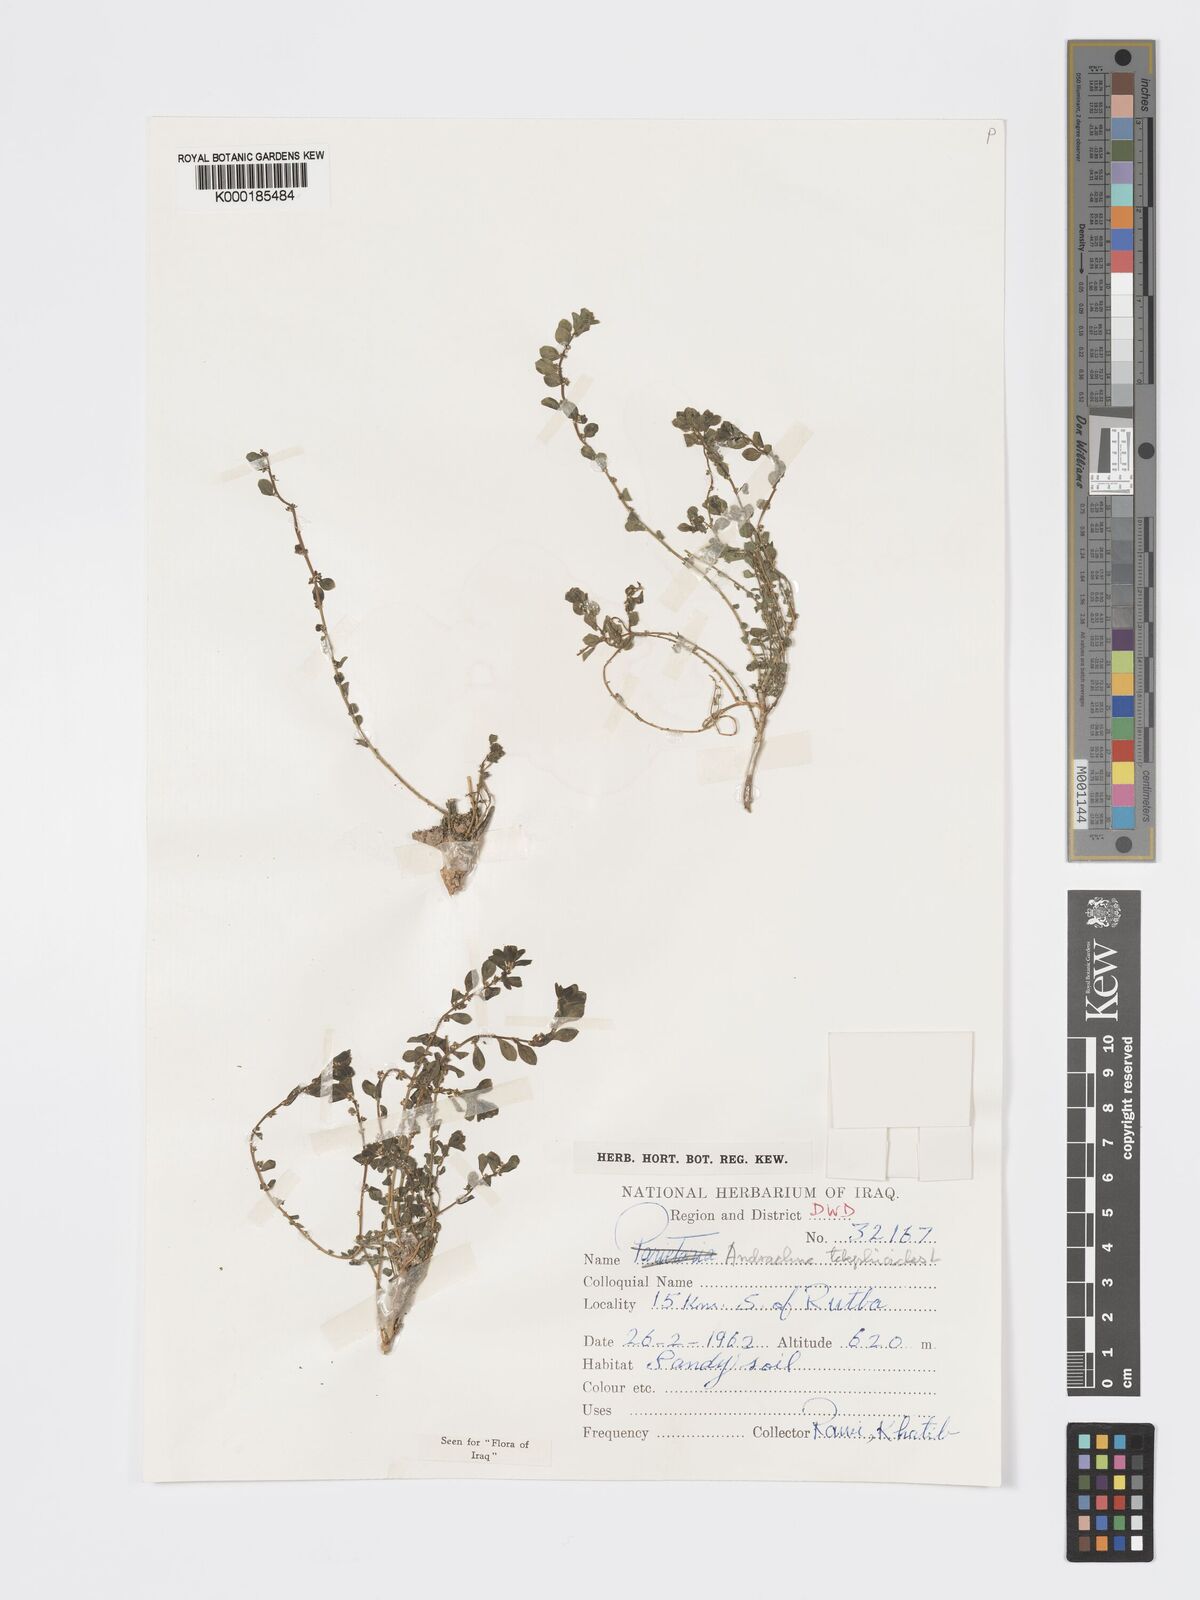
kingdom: Plantae
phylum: Tracheophyta
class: Magnoliopsida
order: Malpighiales
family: Phyllanthaceae
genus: Andrachne
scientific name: Andrachne telephioides
